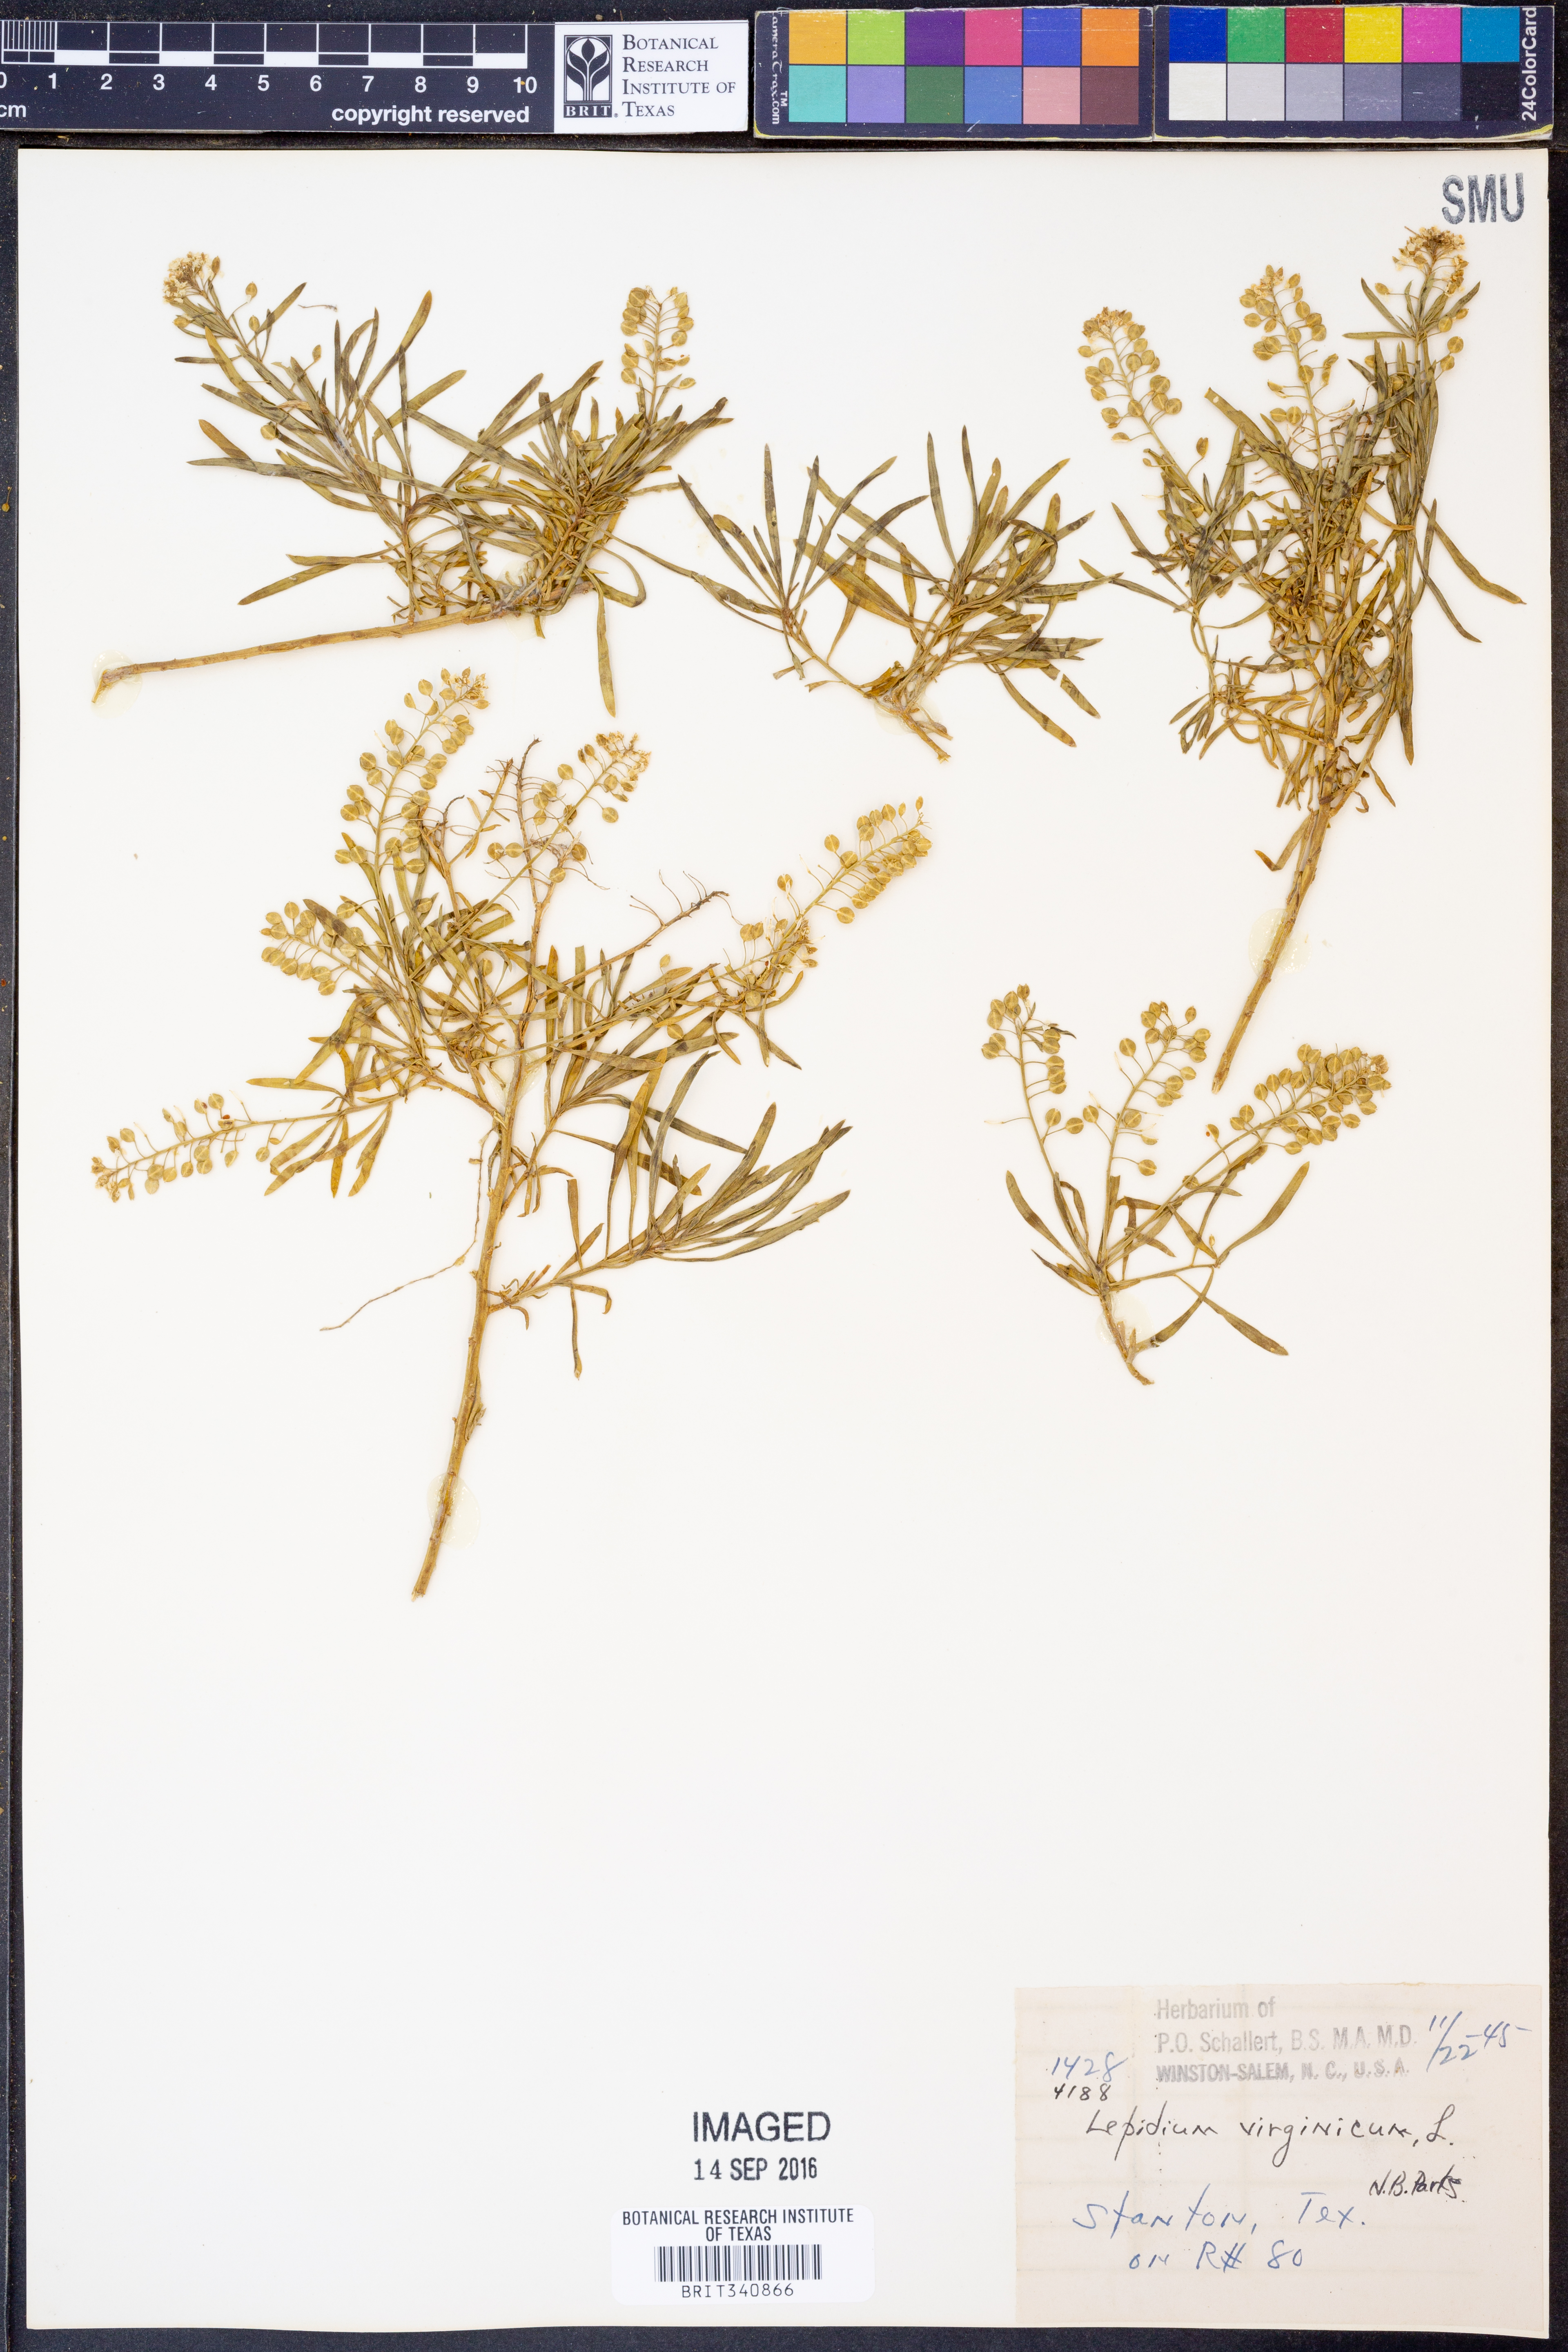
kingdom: Plantae
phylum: Tracheophyta
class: Magnoliopsida
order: Brassicales
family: Brassicaceae
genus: Lepidium
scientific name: Lepidium virginicum
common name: Least pepperwort
